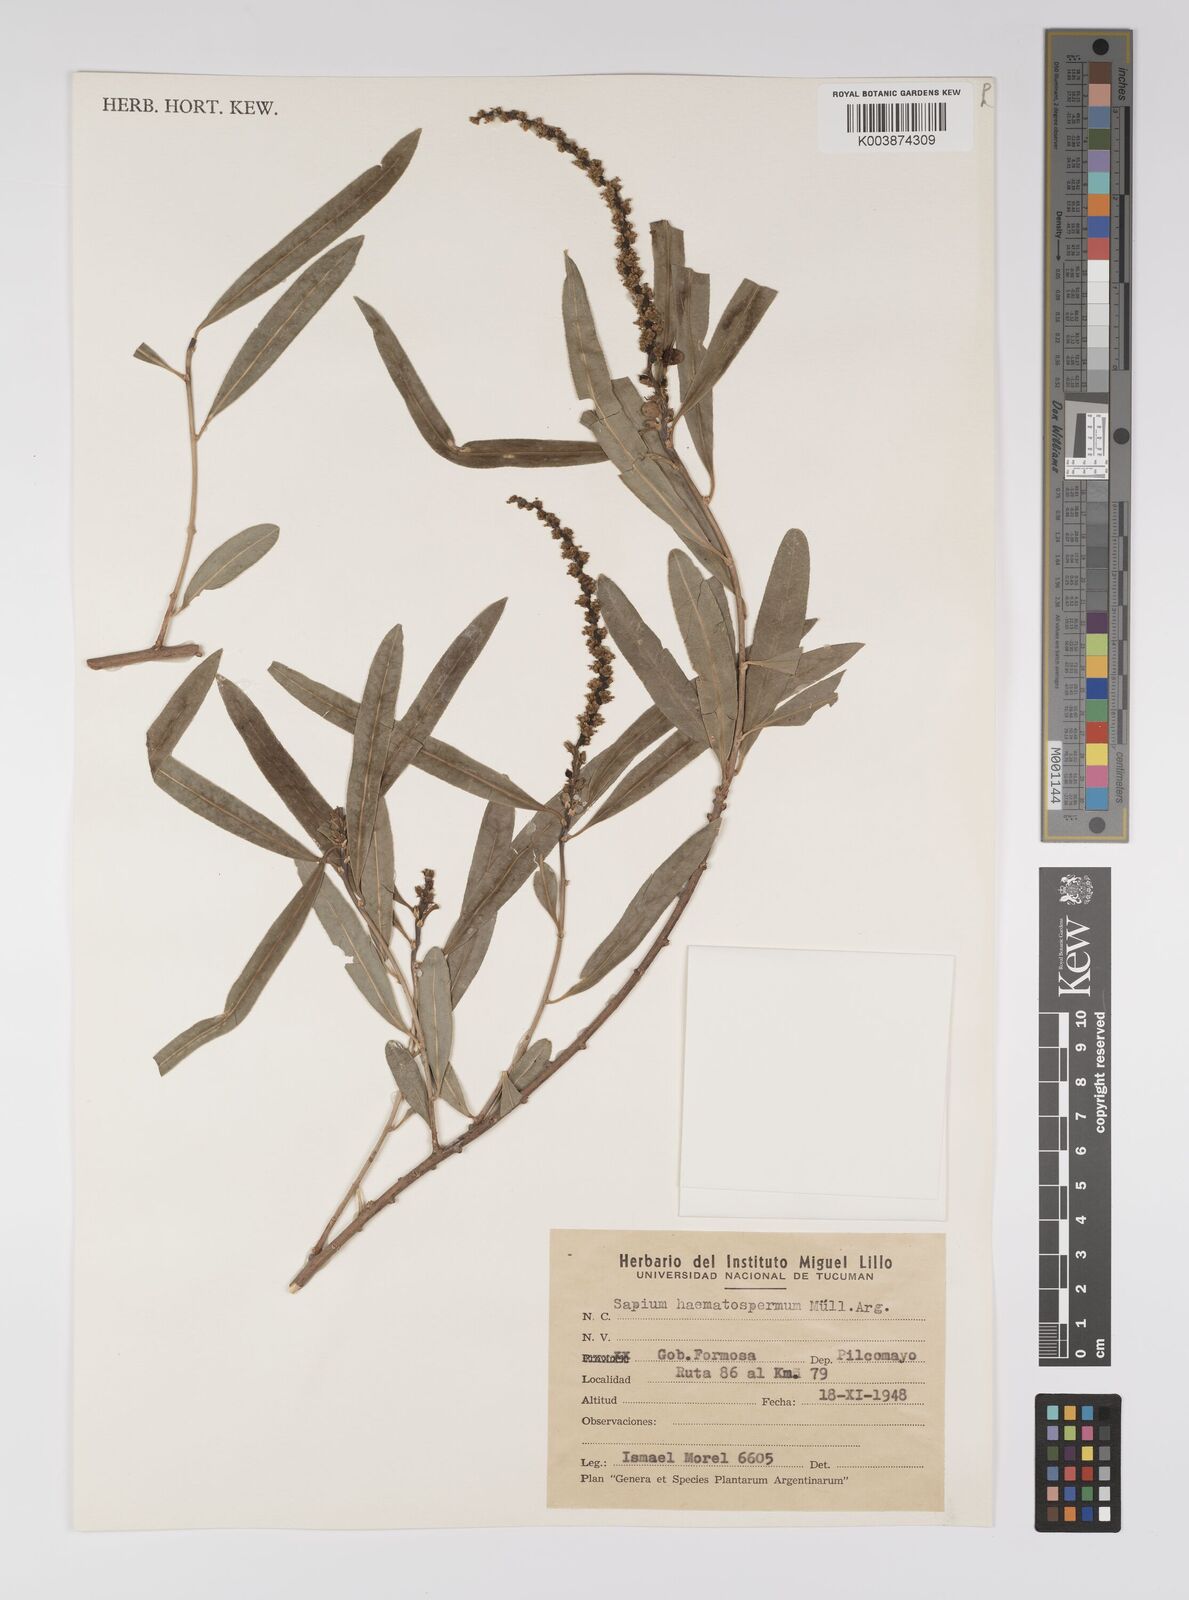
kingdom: Plantae
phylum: Tracheophyta
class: Magnoliopsida
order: Malpighiales
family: Euphorbiaceae
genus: Sapium
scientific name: Sapium haematospermum
